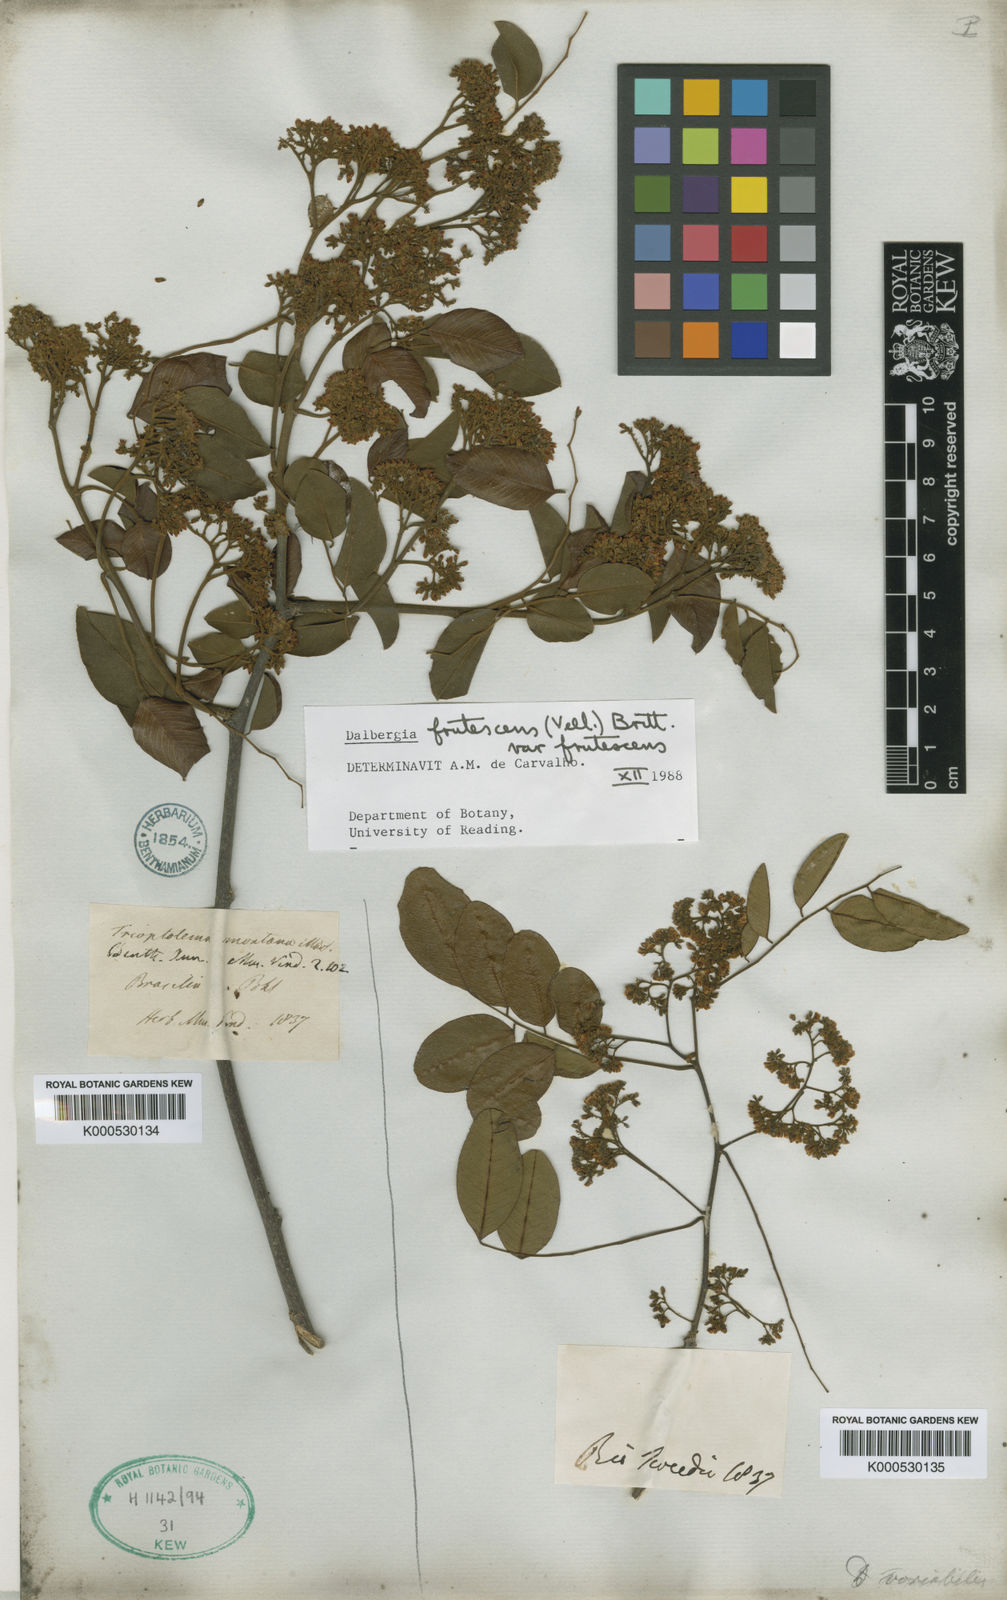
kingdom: Plantae
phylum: Tracheophyta
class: Magnoliopsida
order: Fabales
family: Fabaceae
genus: Dalbergia
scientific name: Dalbergia frutescens
